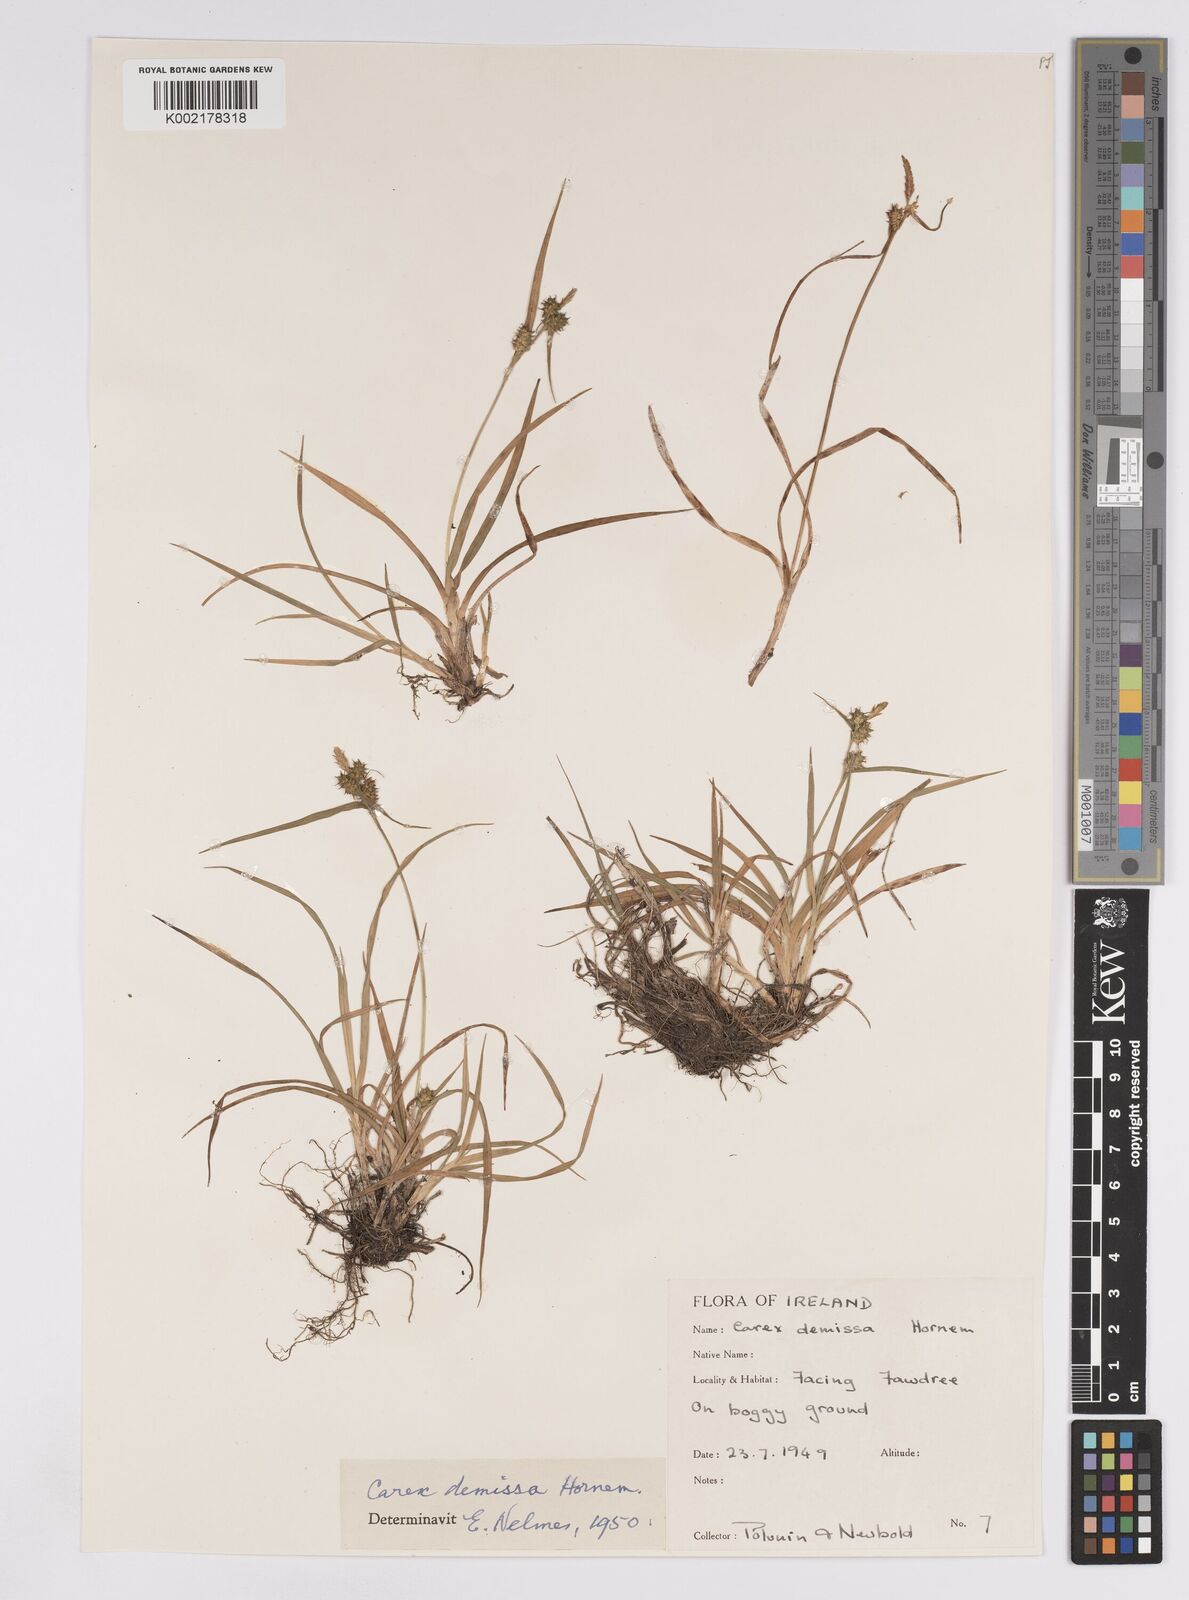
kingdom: Plantae
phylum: Tracheophyta
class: Liliopsida
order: Poales
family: Cyperaceae
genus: Carex
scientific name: Carex demissa
